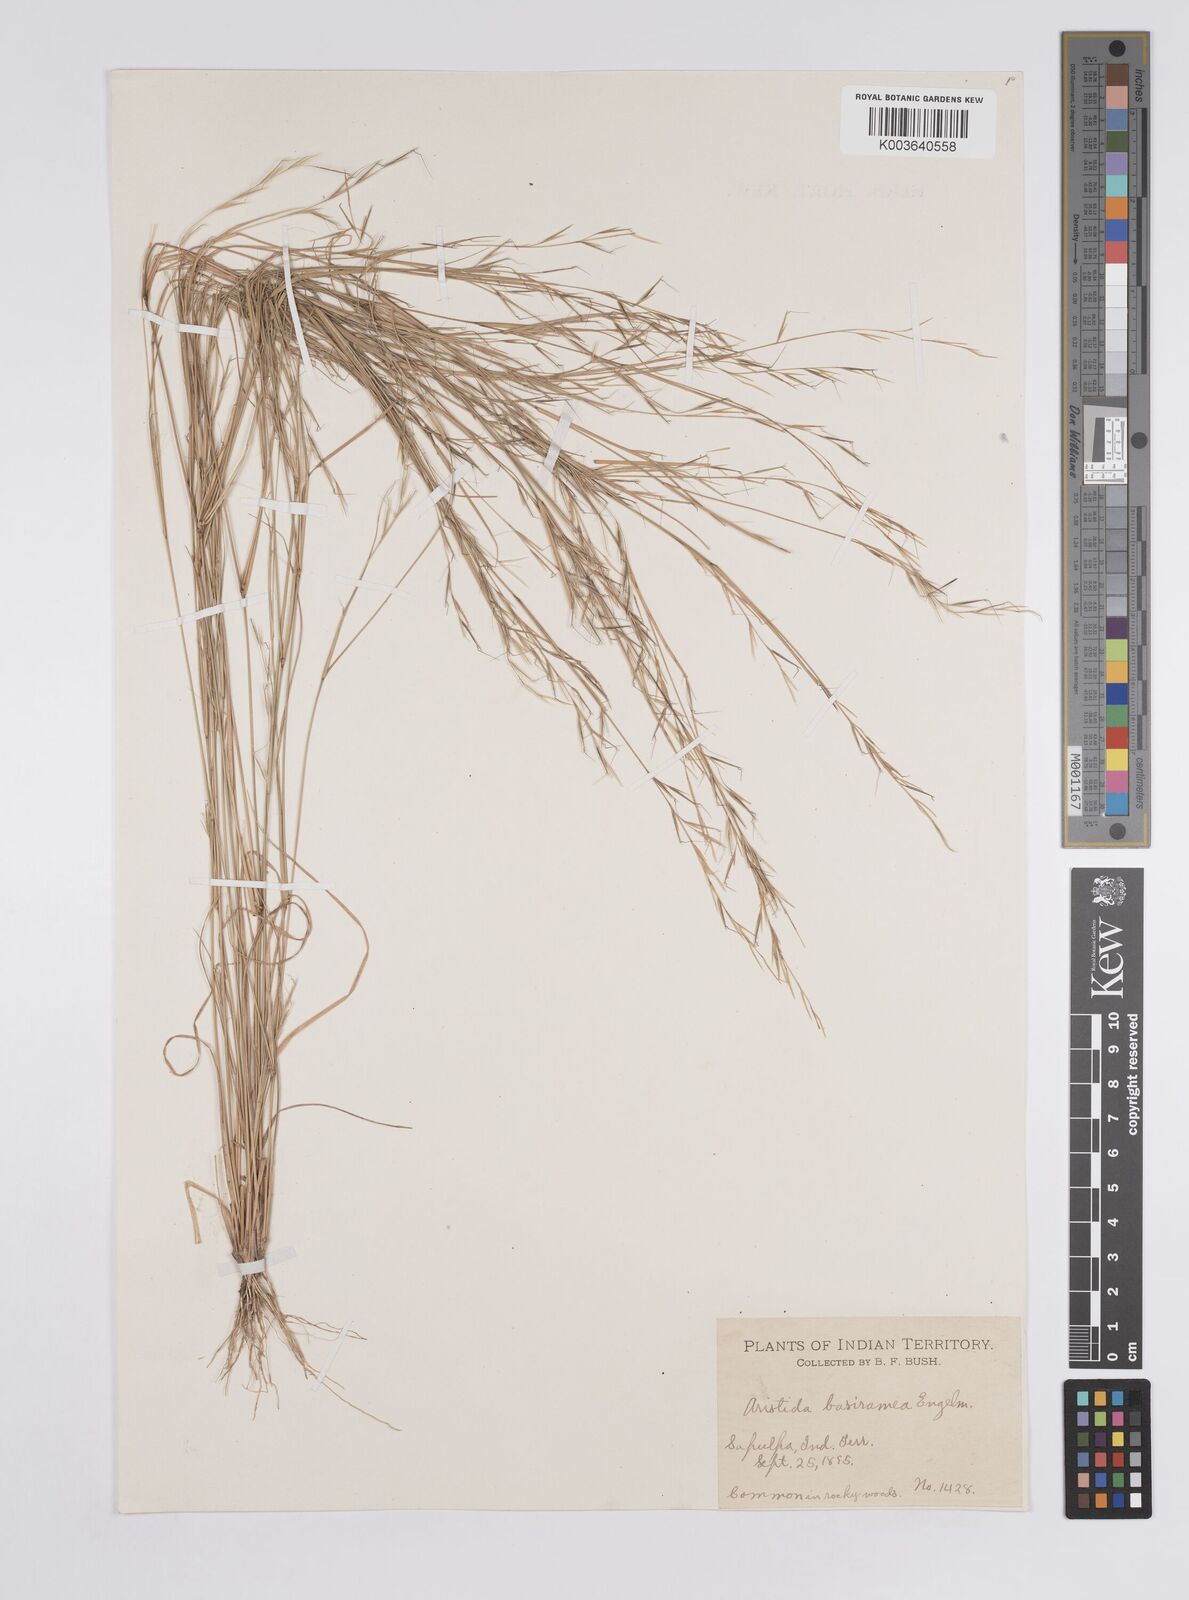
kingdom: Plantae
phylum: Tracheophyta
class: Liliopsida
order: Poales
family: Poaceae
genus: Aristida
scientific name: Aristida basiramea
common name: Forked three-awned grass
